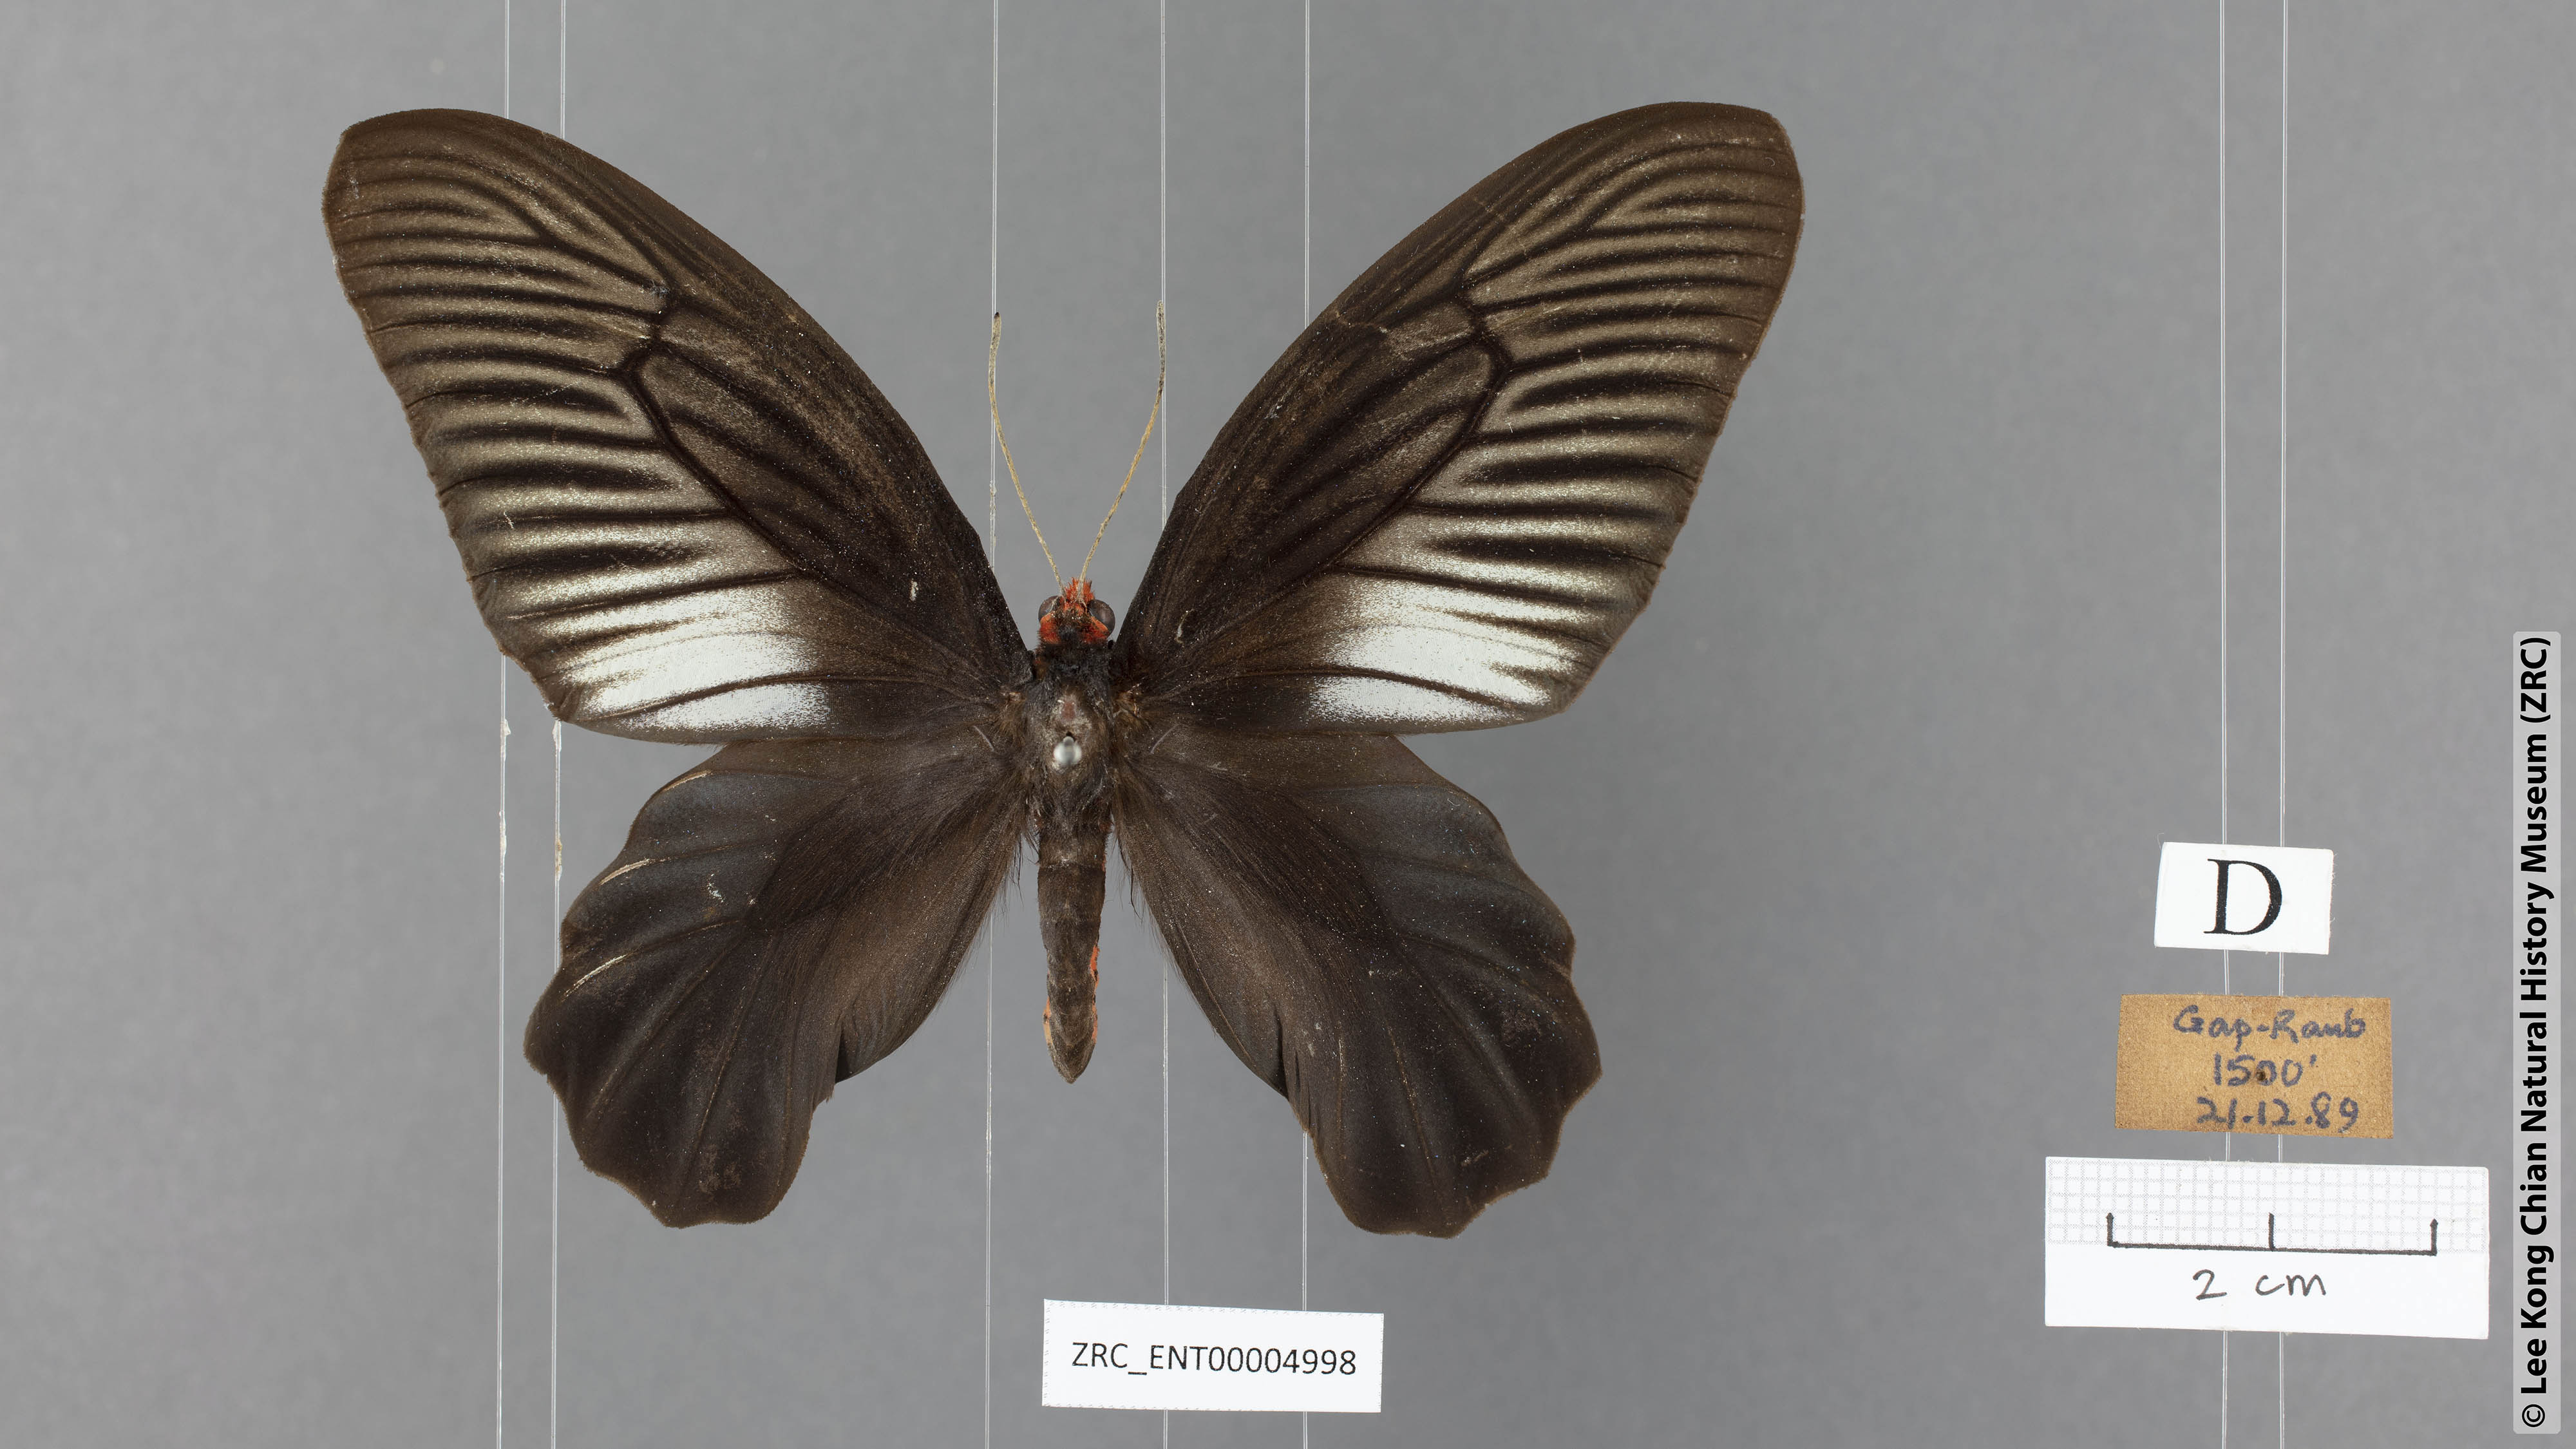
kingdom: Animalia
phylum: Arthropoda
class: Insecta
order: Lepidoptera
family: Papilionidae
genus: Atrophaneura
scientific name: Atrophaneura varuna
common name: Common batwing
